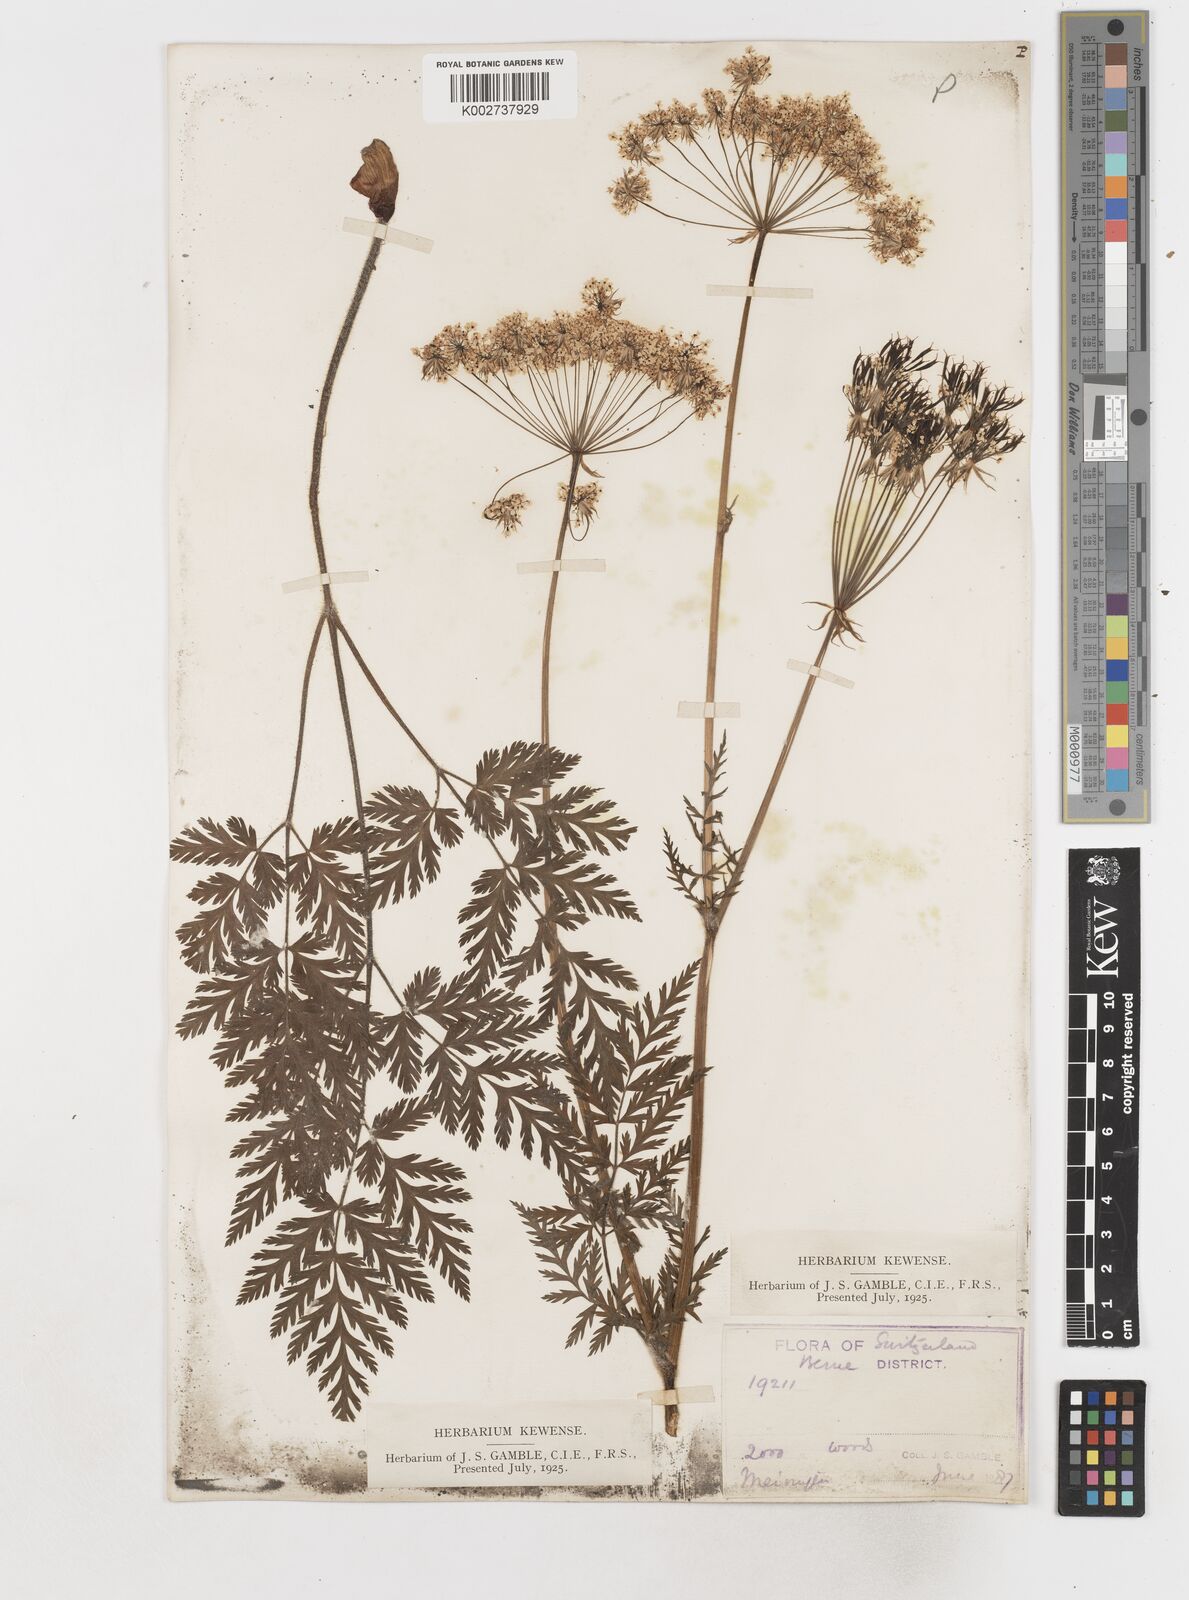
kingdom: Plantae
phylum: Tracheophyta
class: Magnoliopsida
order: Apiales
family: Apiaceae
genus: Myrrhis
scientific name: Myrrhis odorata
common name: Sweet cicely
